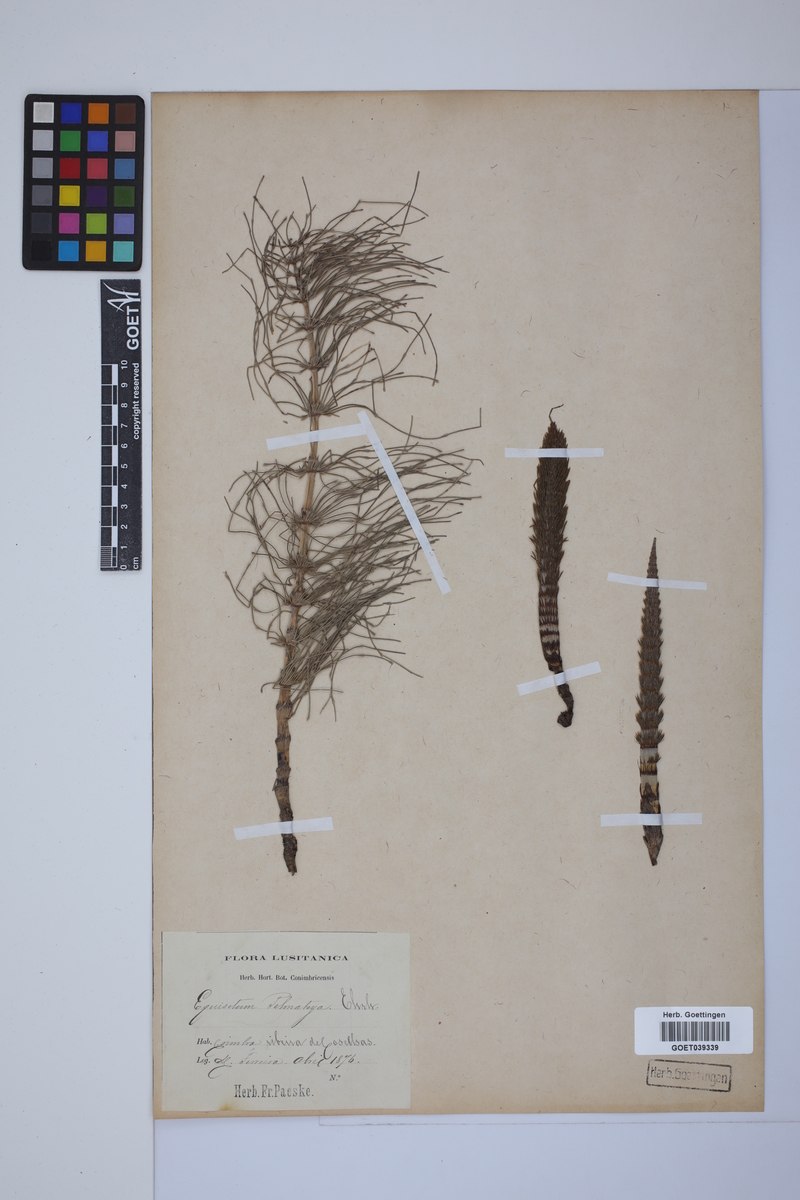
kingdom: Plantae
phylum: Tracheophyta
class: Polypodiopsida
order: Equisetales
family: Equisetaceae
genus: Equisetum
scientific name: Equisetum telmateia
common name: Great horsetail
